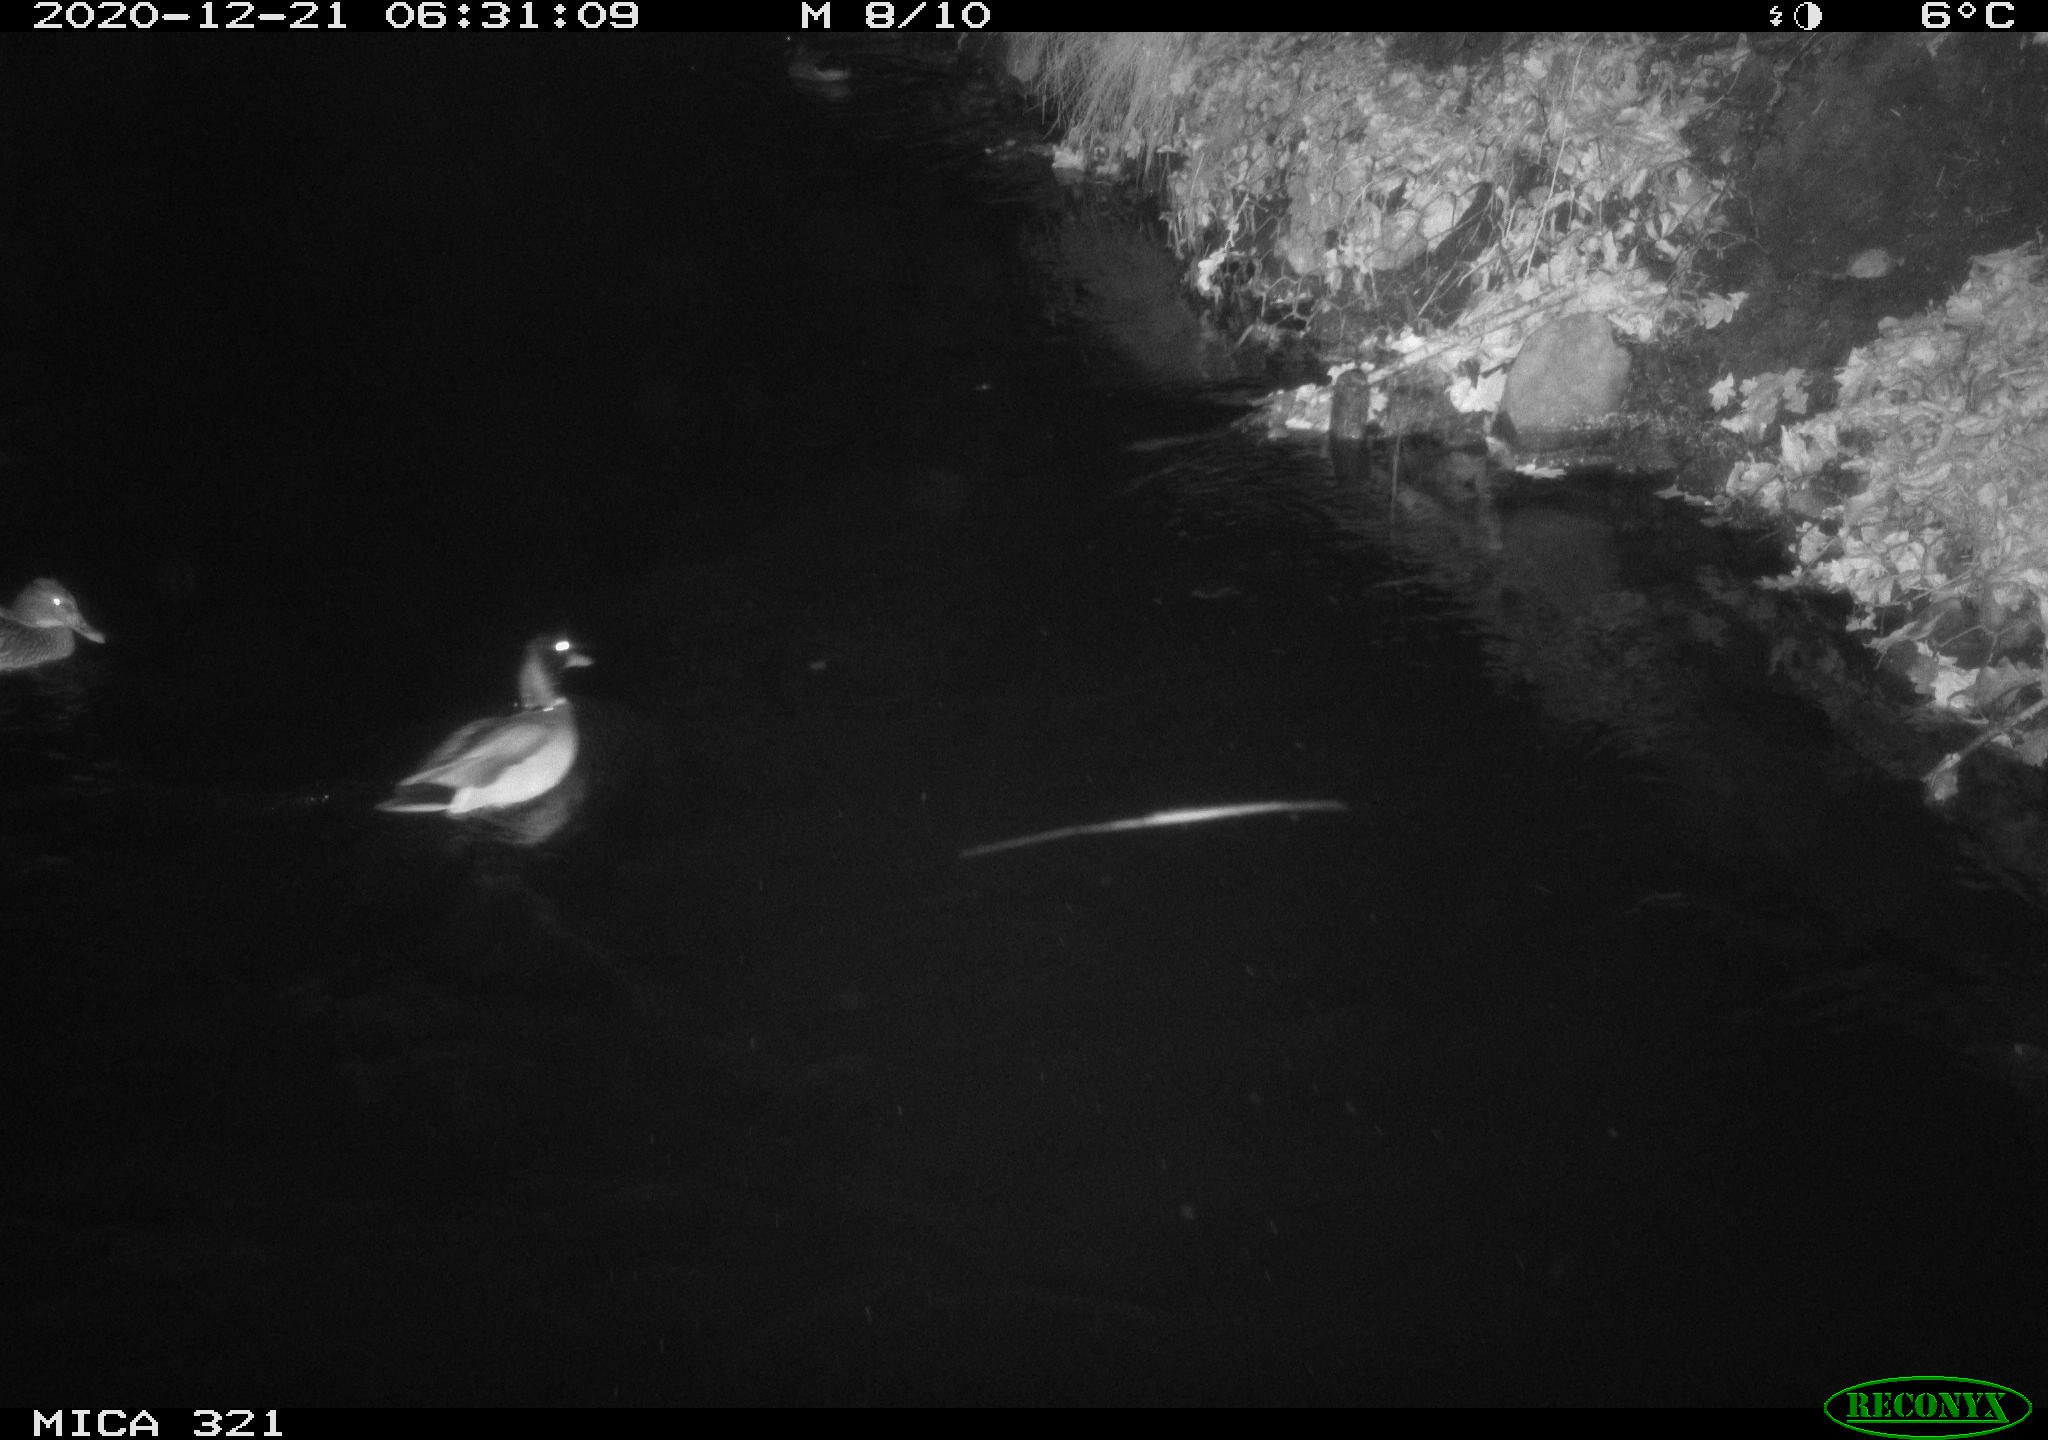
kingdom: Animalia
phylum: Chordata
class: Aves
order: Anseriformes
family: Anatidae
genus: Anas
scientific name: Anas platyrhynchos
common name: Mallard
